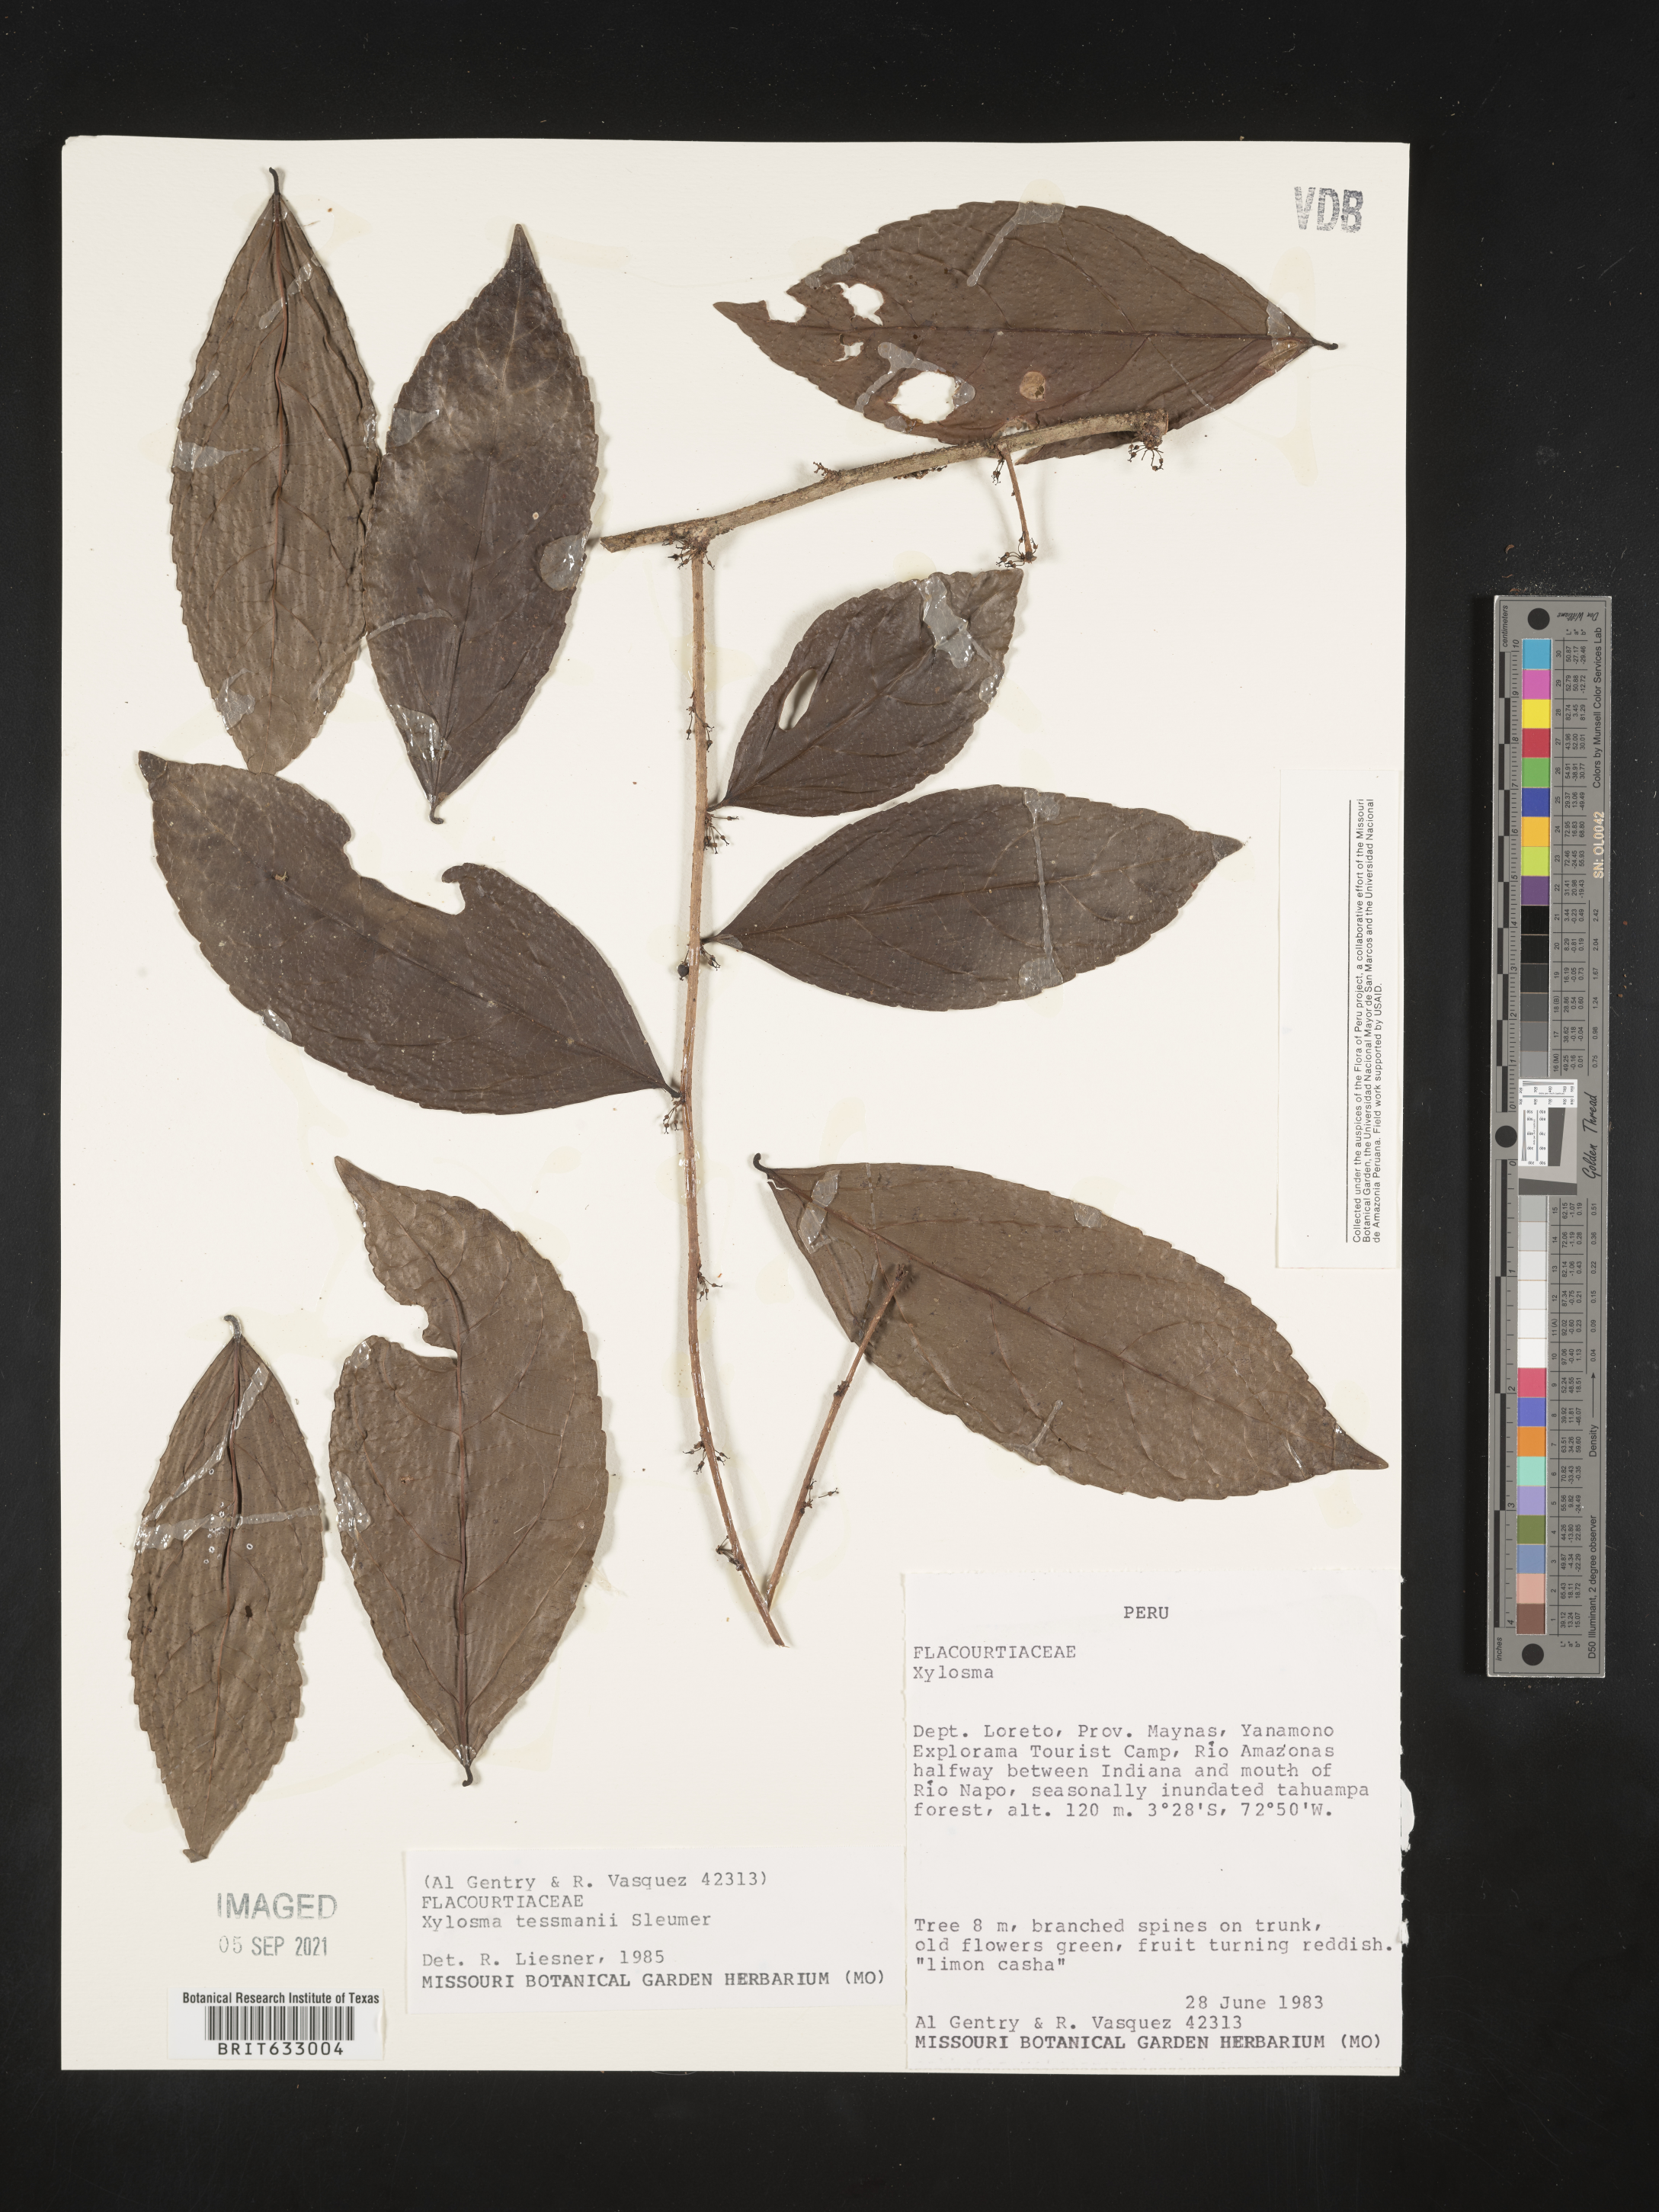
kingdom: Plantae
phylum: Tracheophyta
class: Magnoliopsida
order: Malpighiales
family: Salicaceae
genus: Xylosma
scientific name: Xylosma
